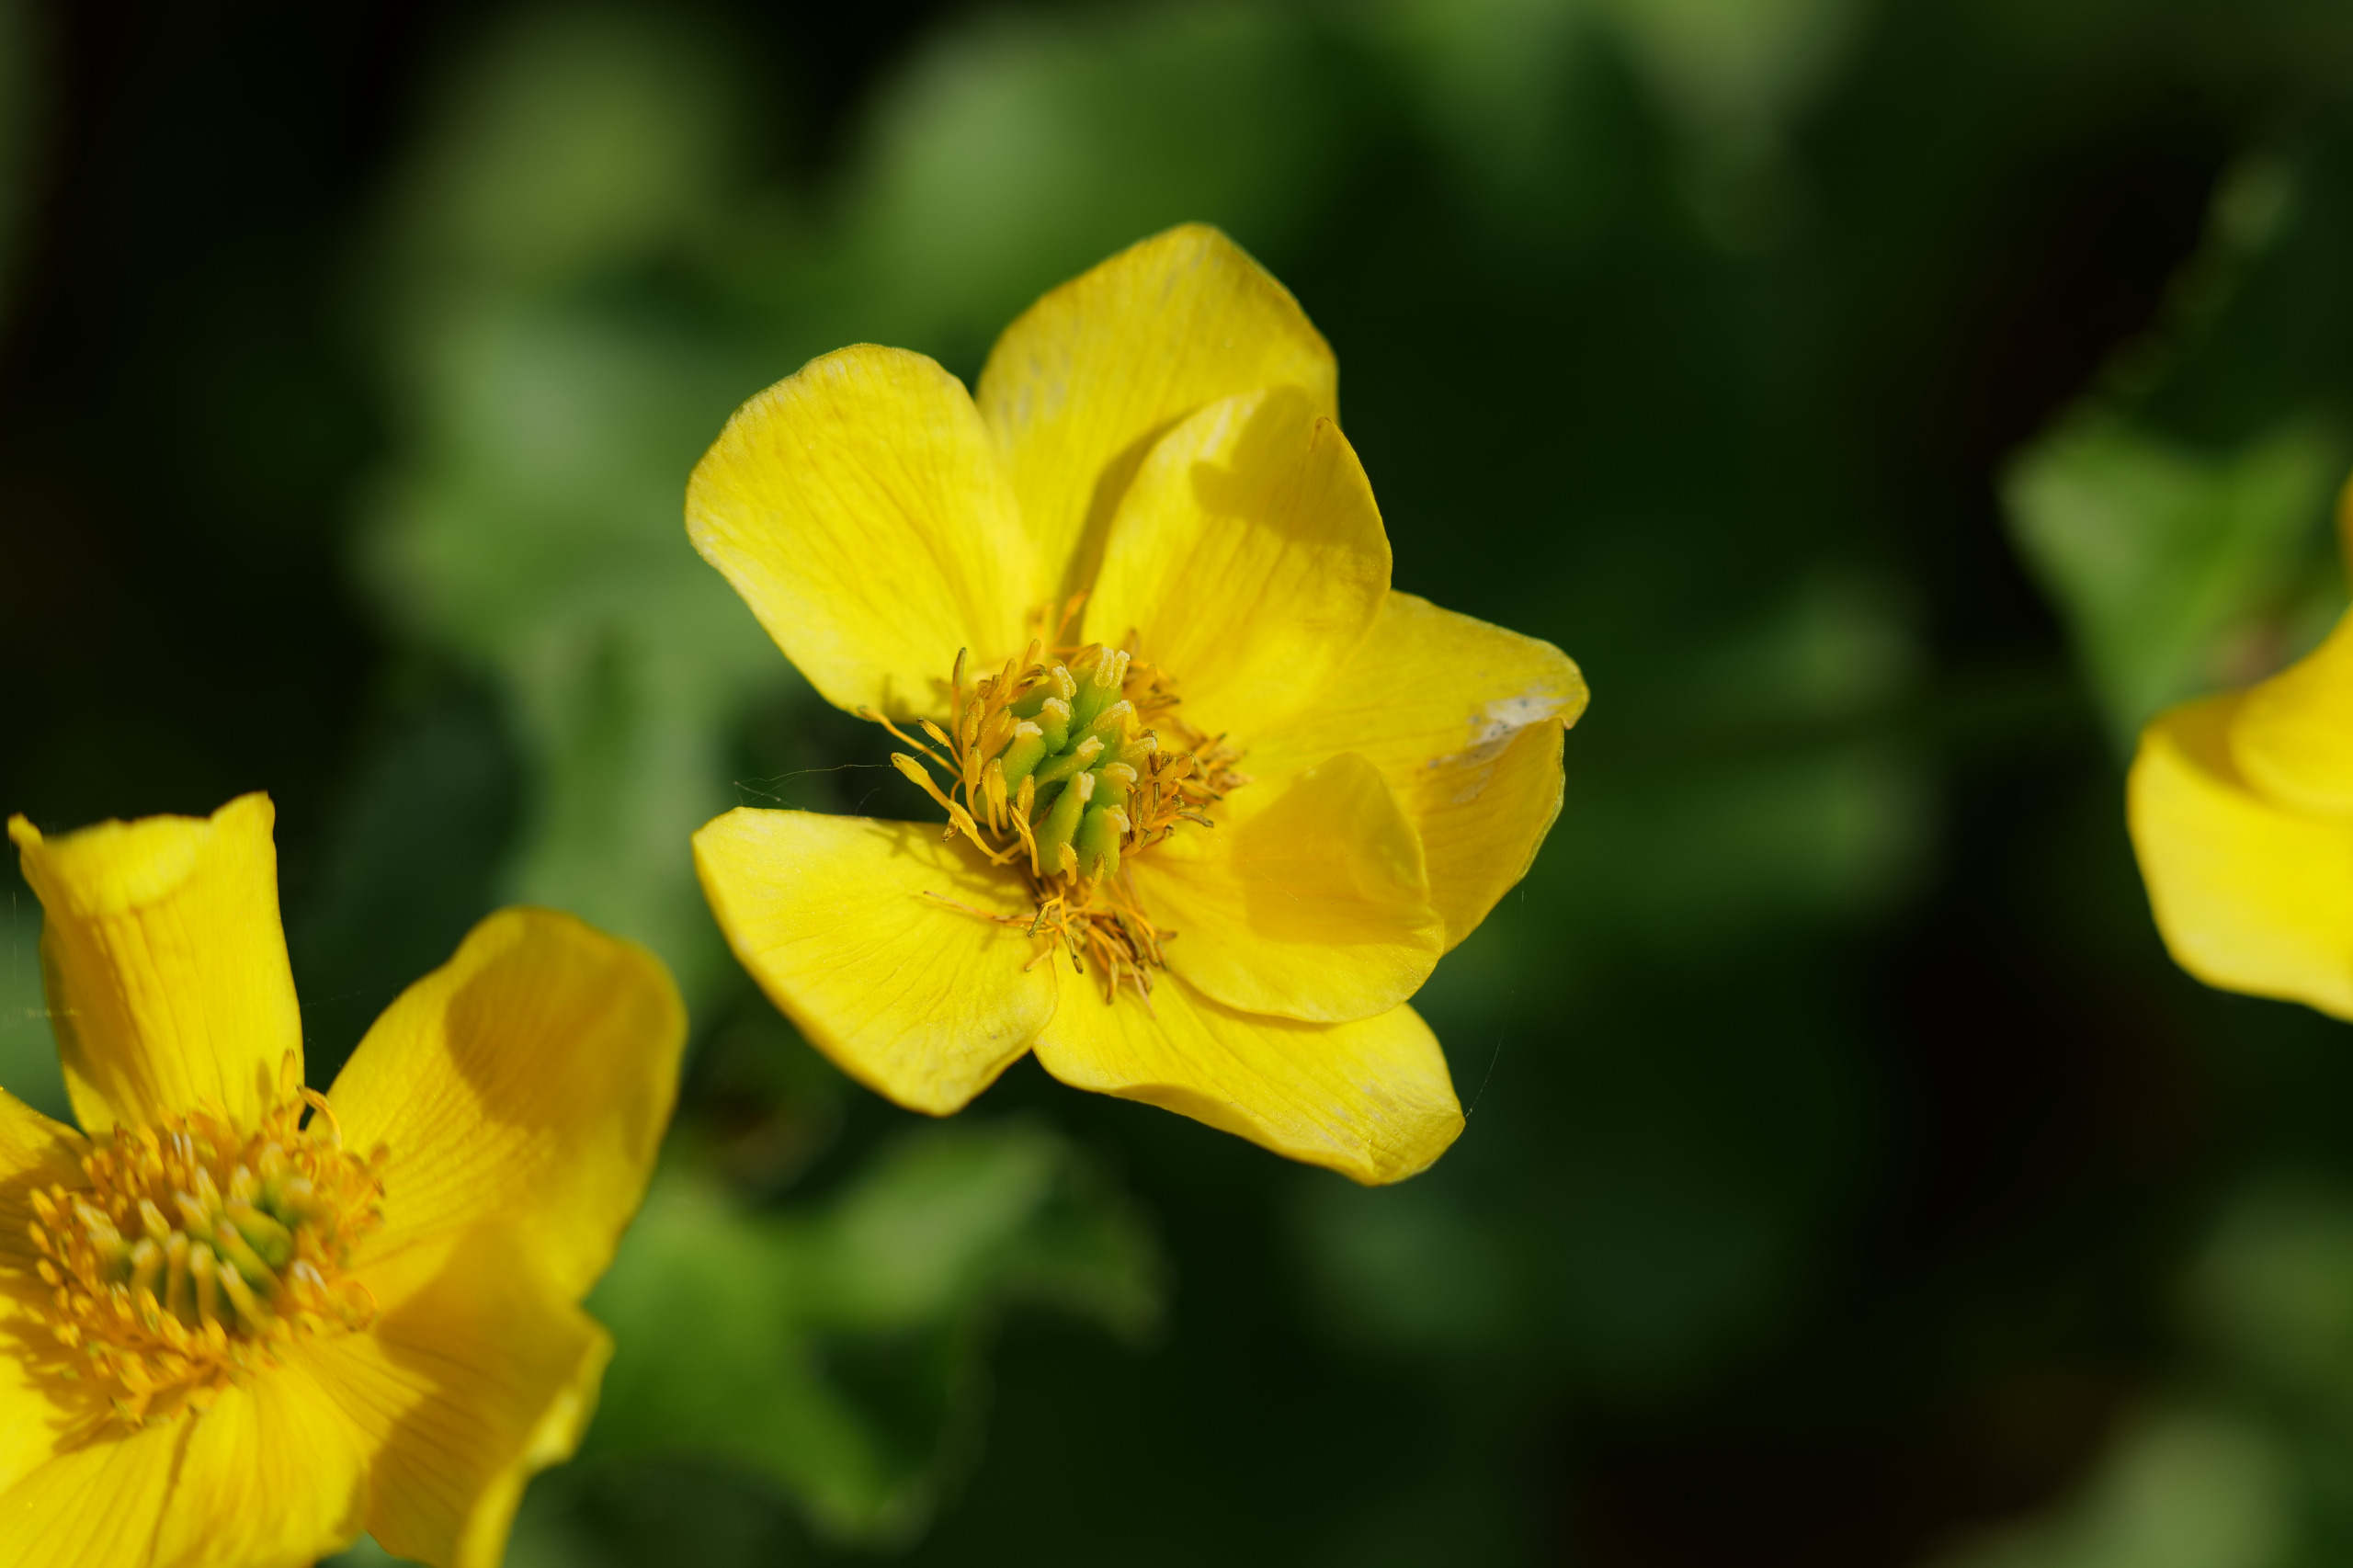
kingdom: Plantae
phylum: Tracheophyta
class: Magnoliopsida
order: Ranunculales
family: Ranunculaceae
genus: Caltha
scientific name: Caltha palustris
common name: Eng-kabbeleje
